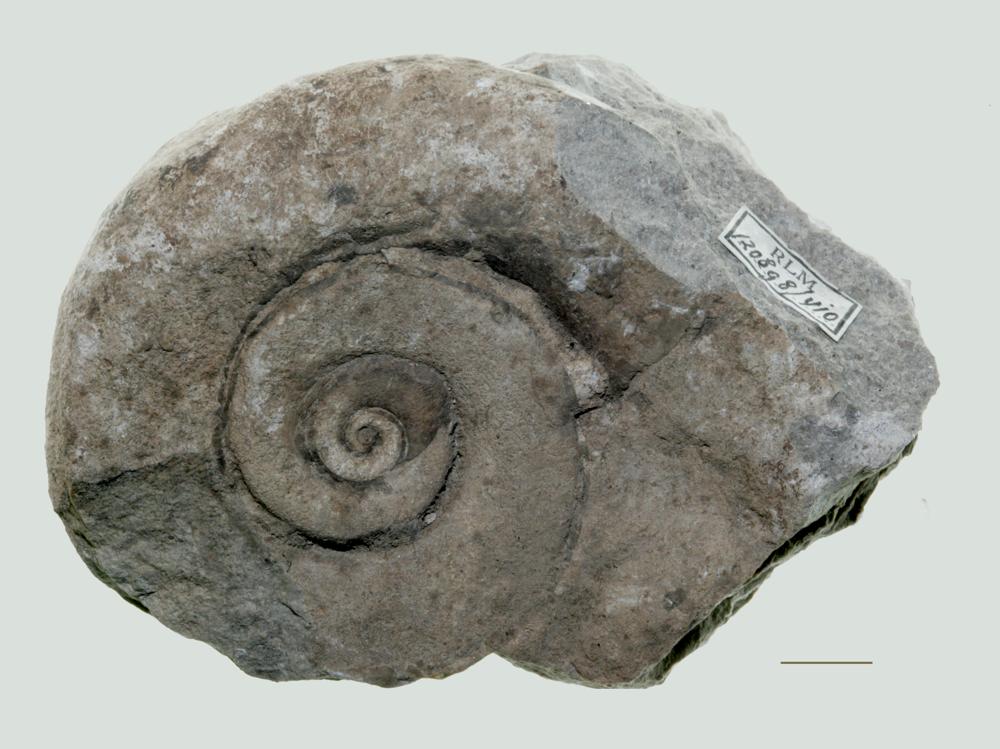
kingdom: Animalia
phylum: Mollusca
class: Gastropoda
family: Lesueurillidae
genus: Mestoronema
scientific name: Mestoronema Euomphalus marginalis
